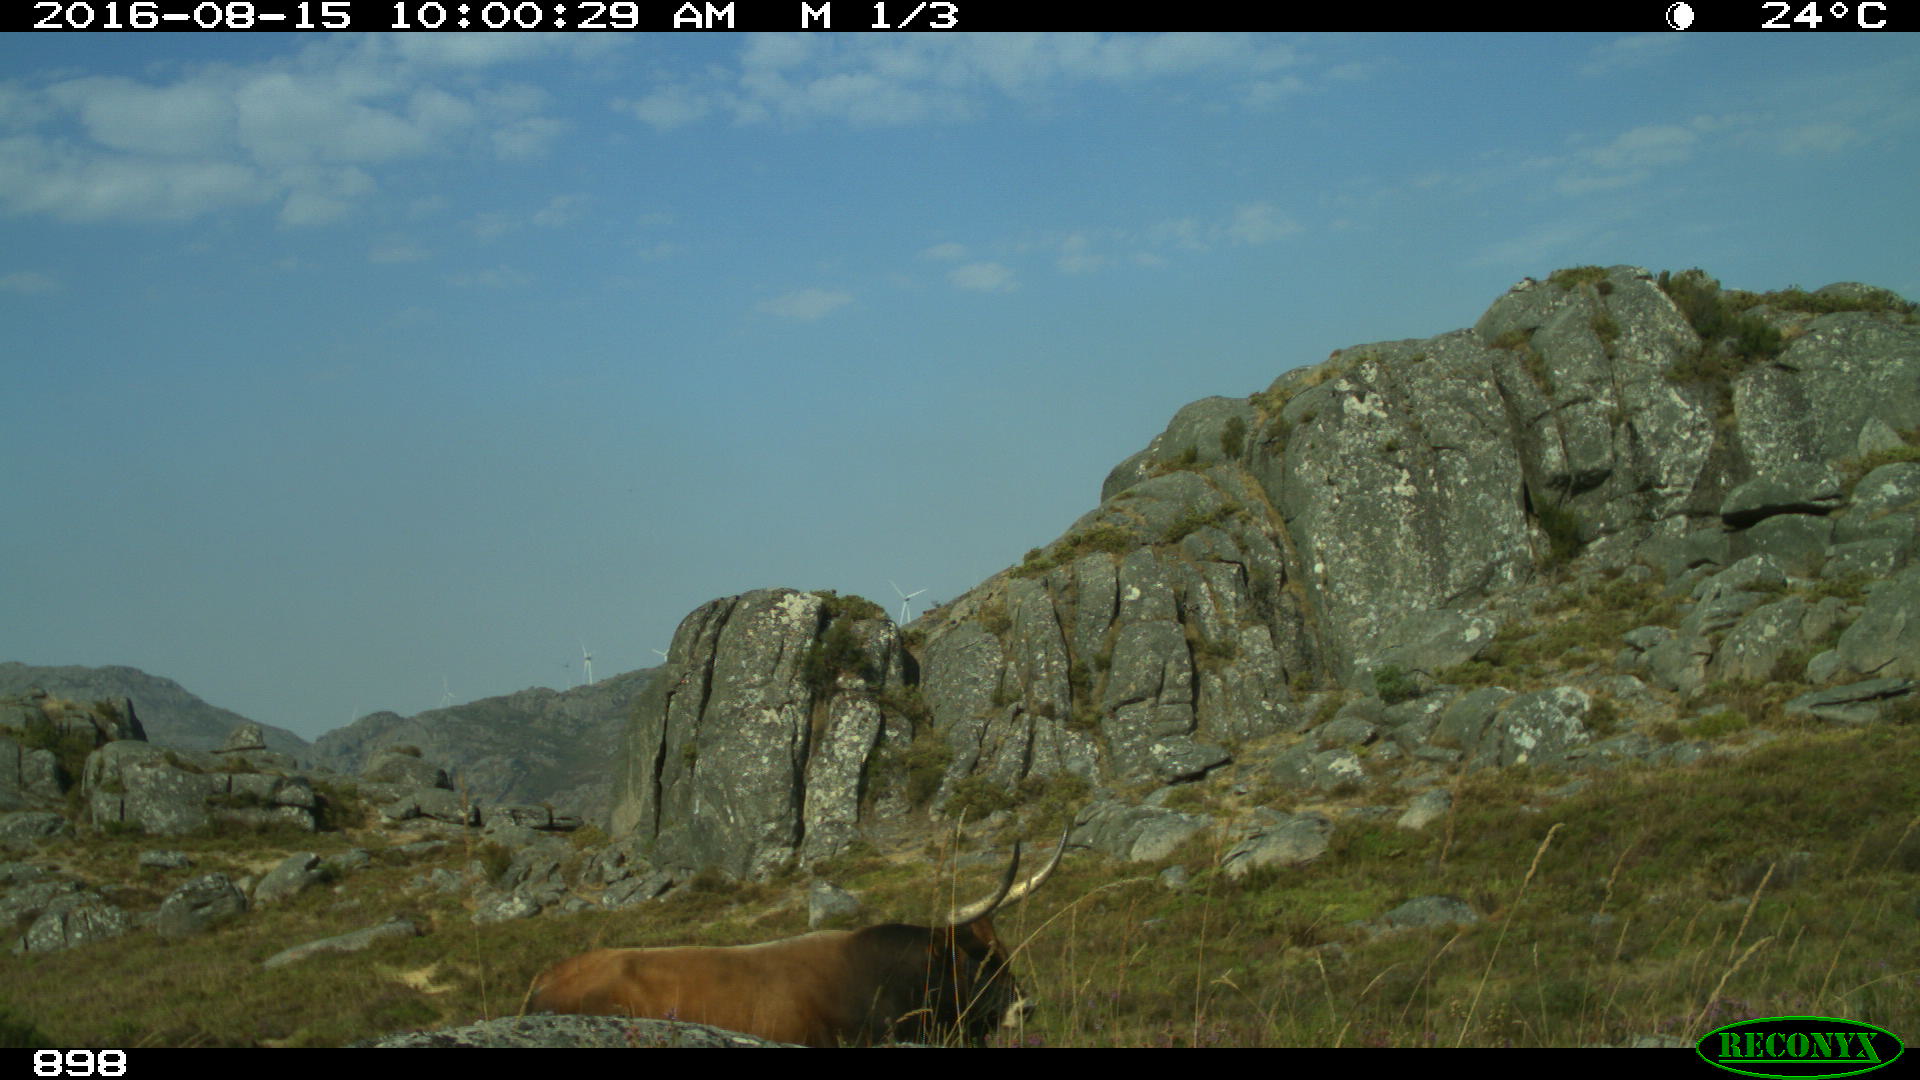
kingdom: Animalia
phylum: Chordata
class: Mammalia
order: Artiodactyla
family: Bovidae
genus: Bos
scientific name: Bos taurus
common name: Domesticated cattle
